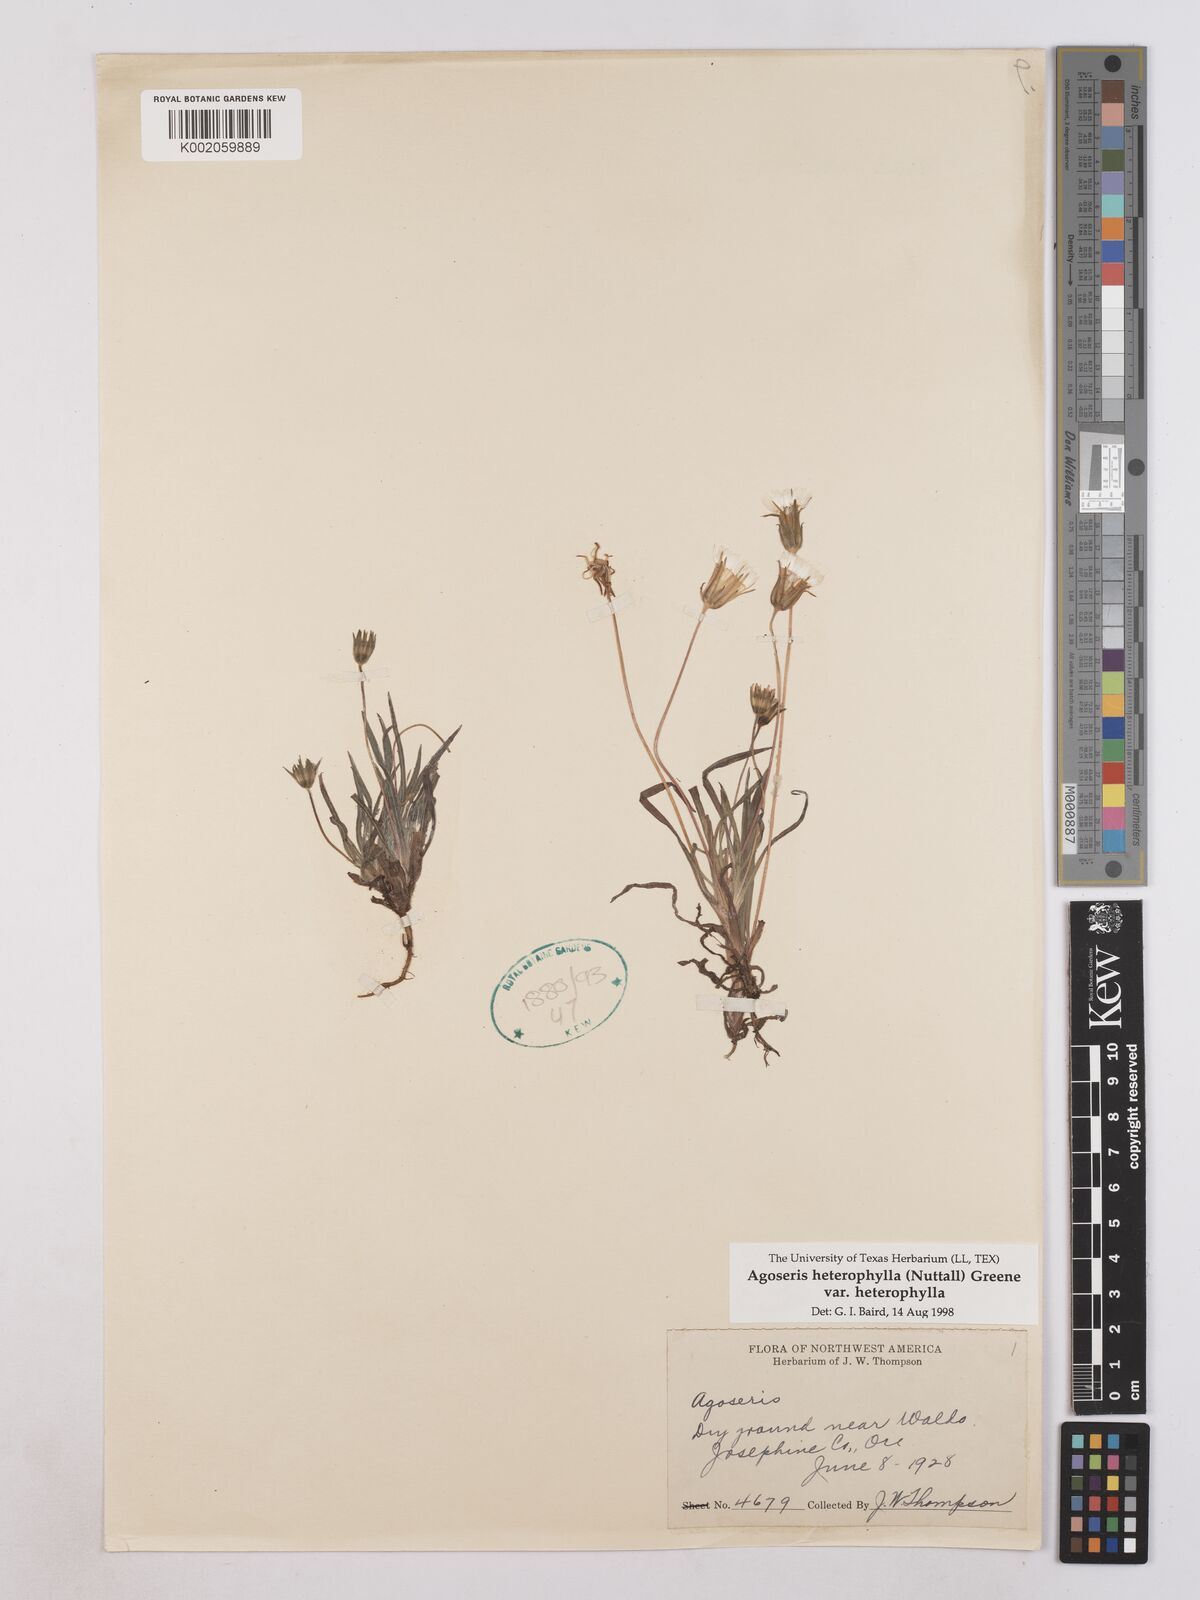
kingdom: Plantae
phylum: Tracheophyta
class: Magnoliopsida
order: Asterales
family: Asteraceae
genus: Agoseris
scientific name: Agoseris heterophylla
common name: Annual agoseris
